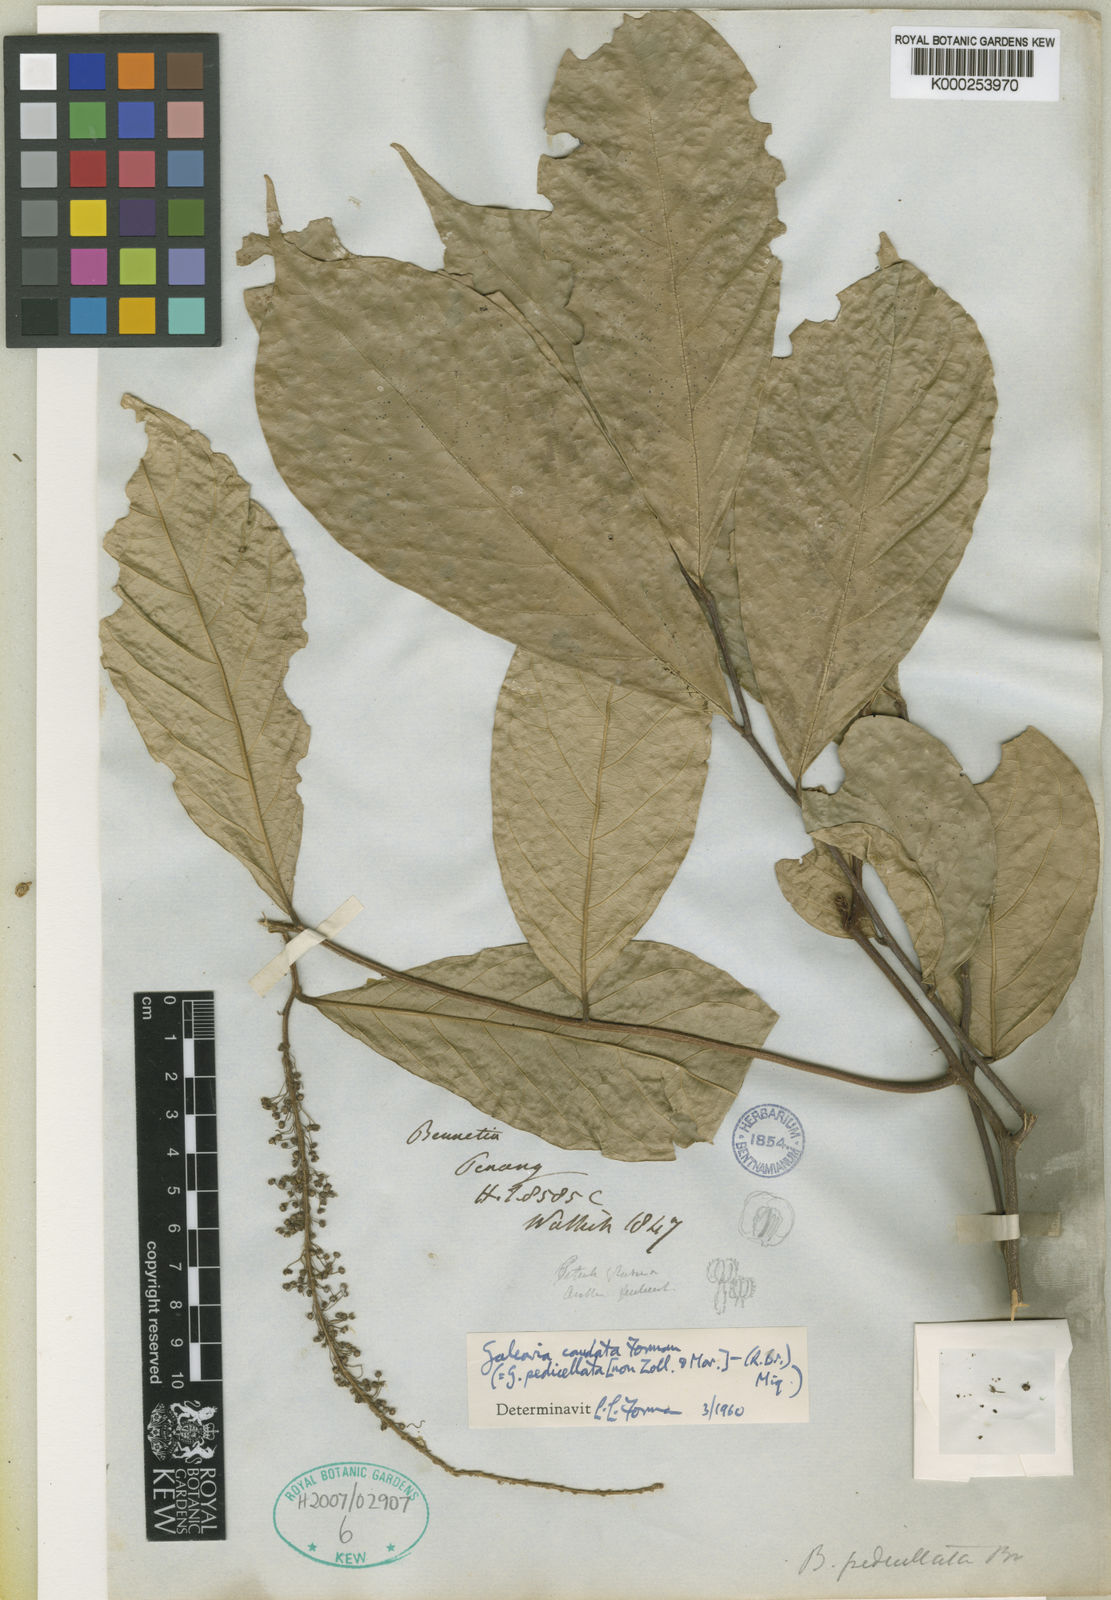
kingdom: Plantae
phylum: Tracheophyta
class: Magnoliopsida
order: Malpighiales
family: Pandaceae
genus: Galearia
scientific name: Galearia fulva
